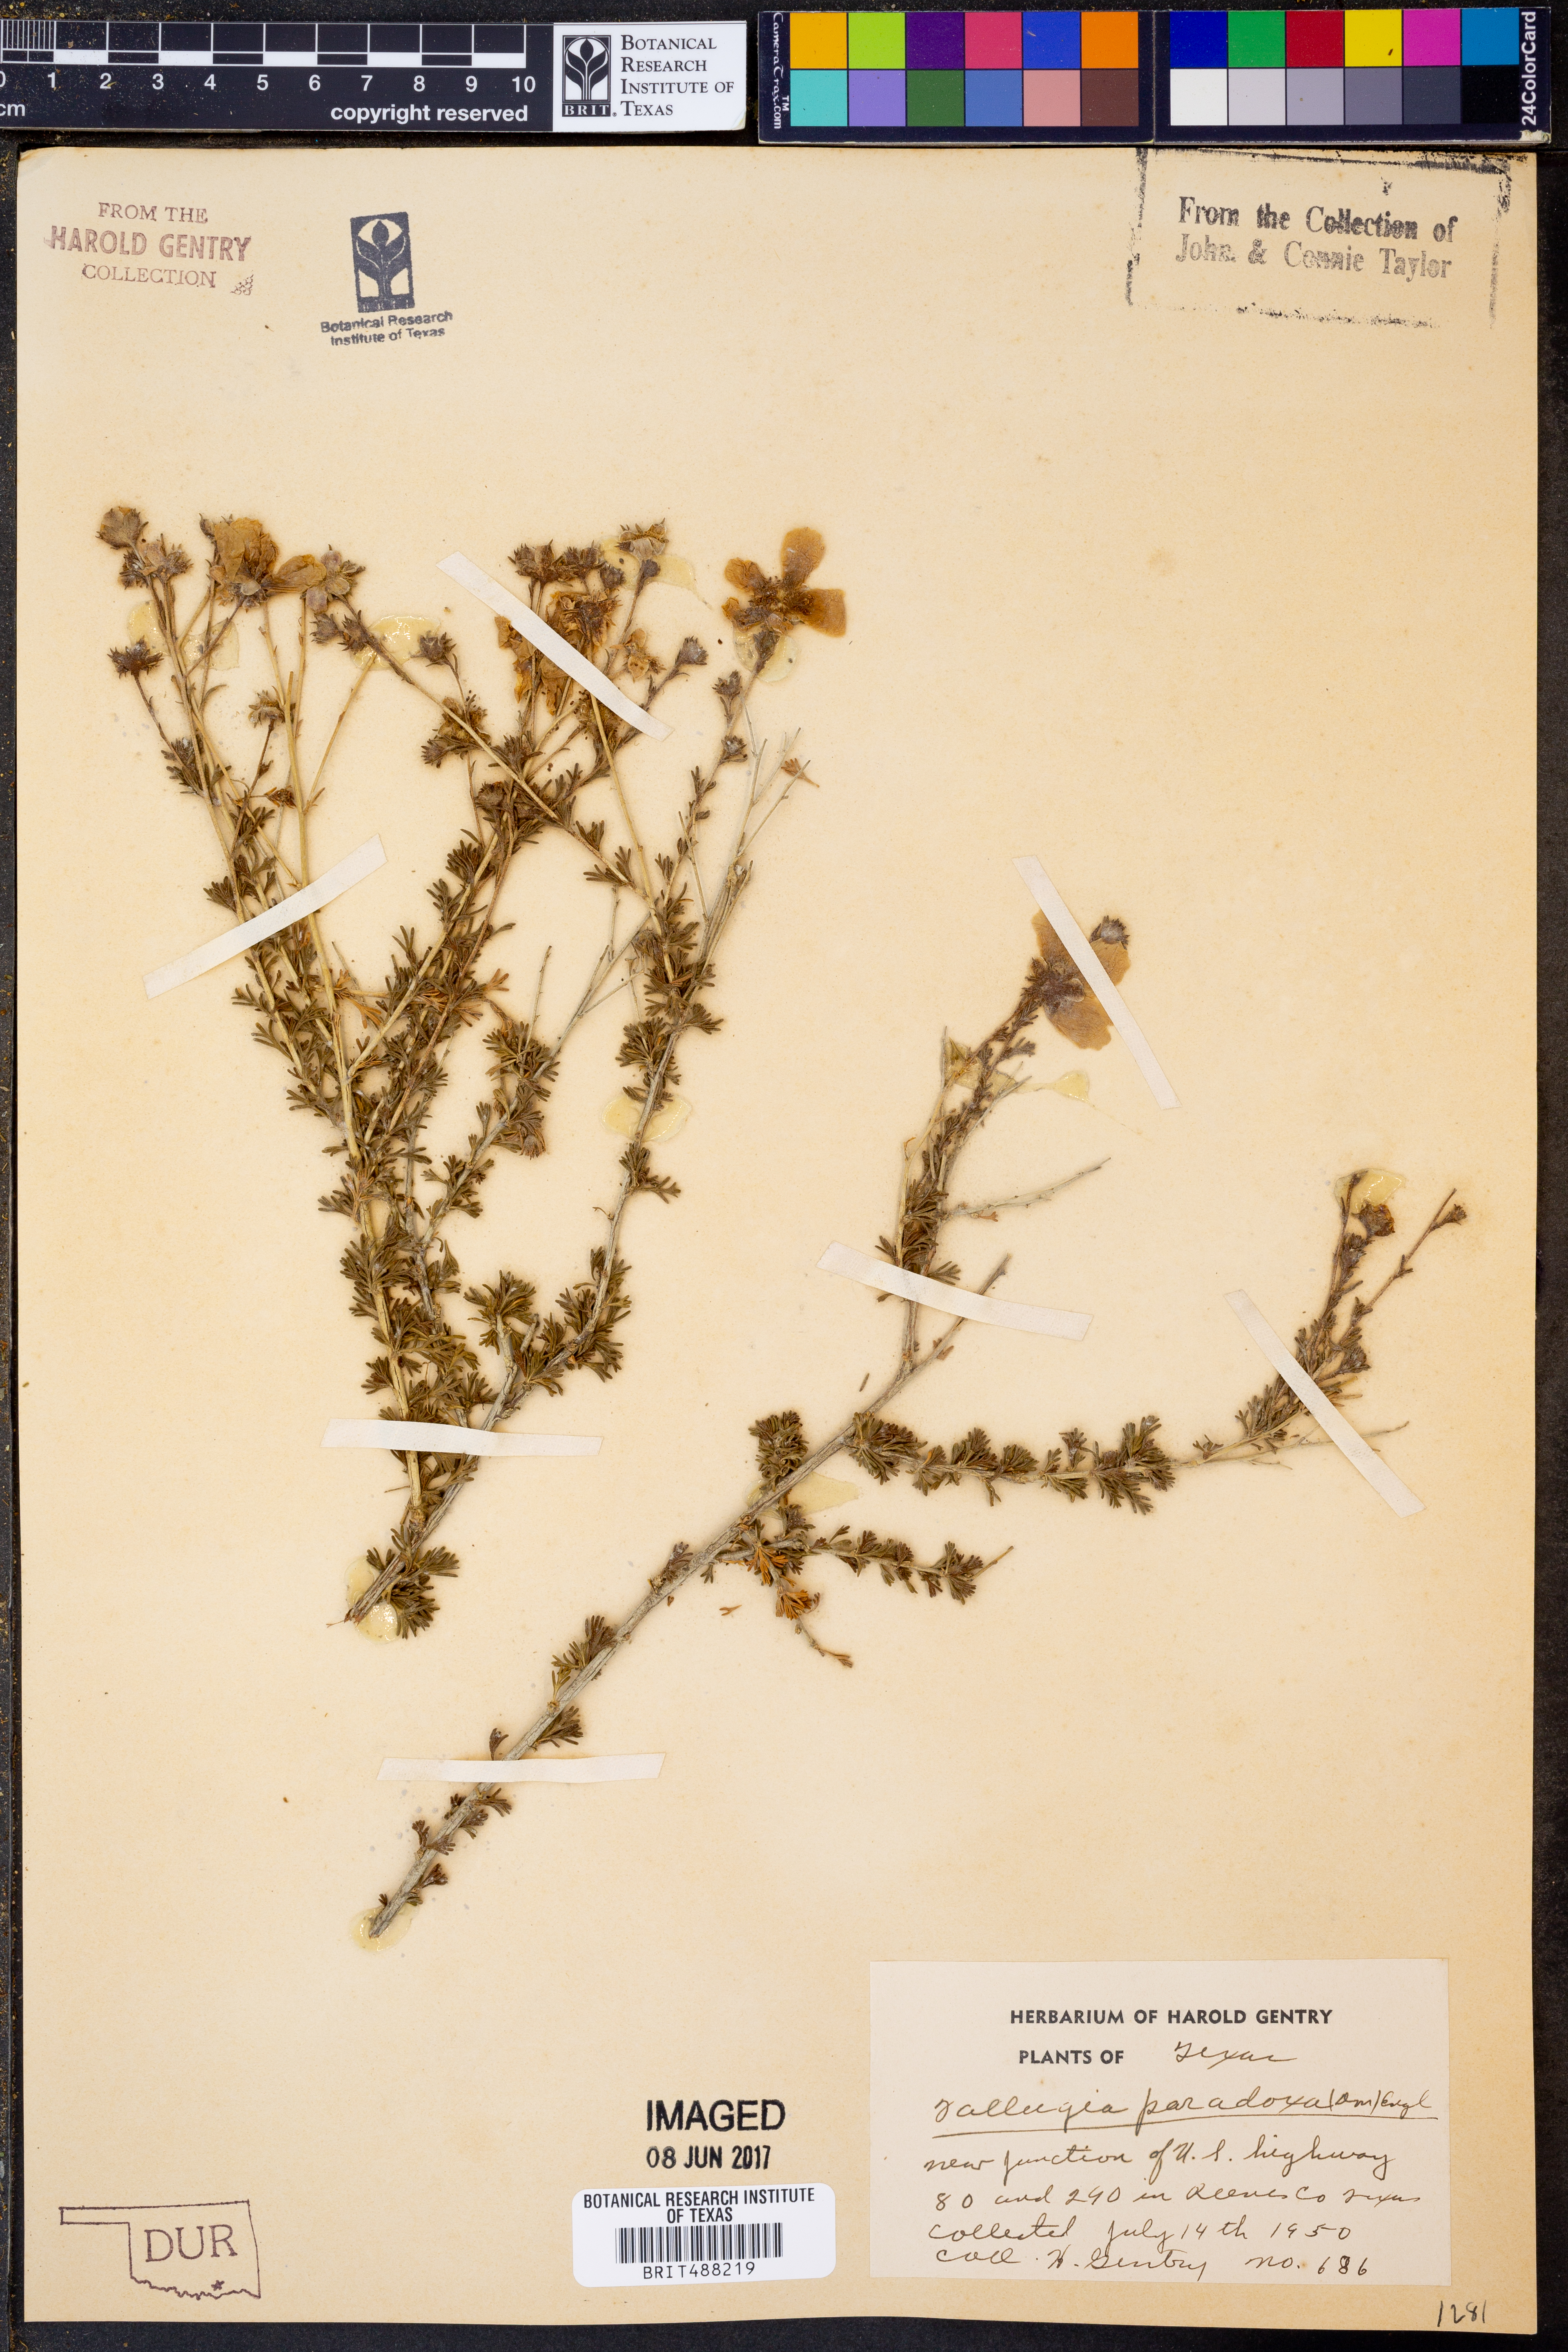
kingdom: Plantae
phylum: Tracheophyta
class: Magnoliopsida
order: Rosales
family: Rosaceae
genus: Fallugia
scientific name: Fallugia paradoxa
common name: Apache-plume
